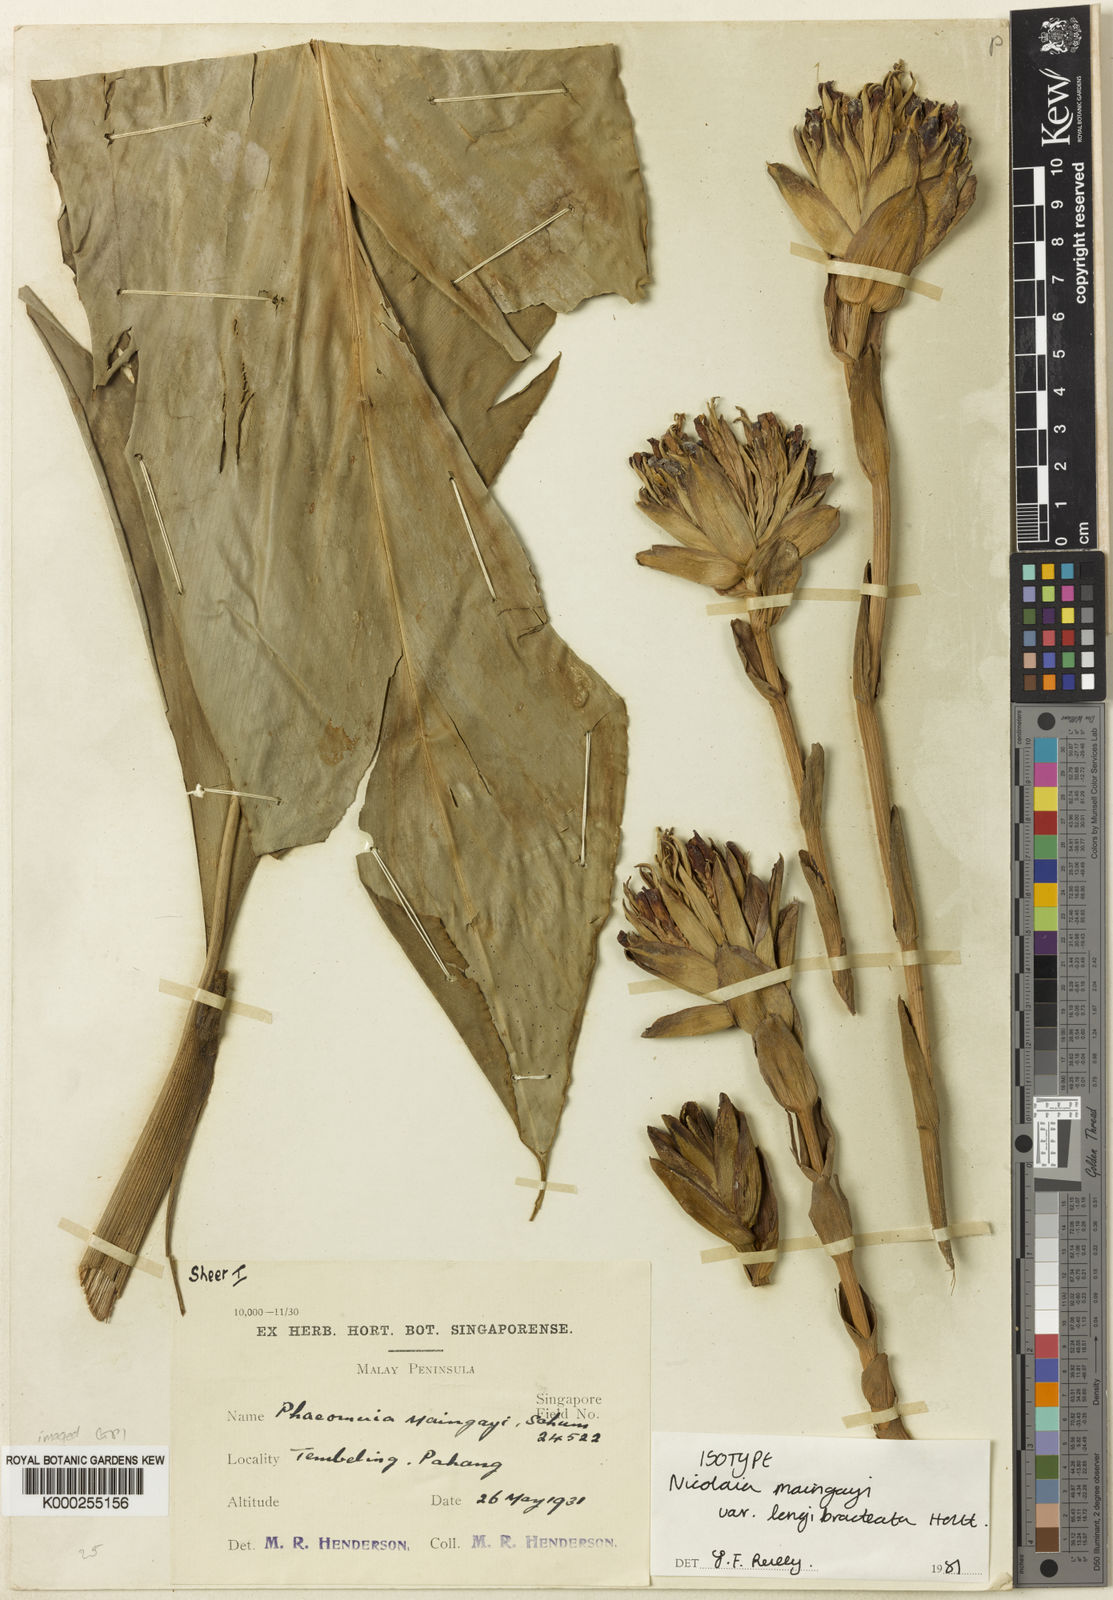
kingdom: Plantae
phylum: Tracheophyta
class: Liliopsida
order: Zingiberales
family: Zingiberaceae
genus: Etlingera
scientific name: Etlingera maingayi
